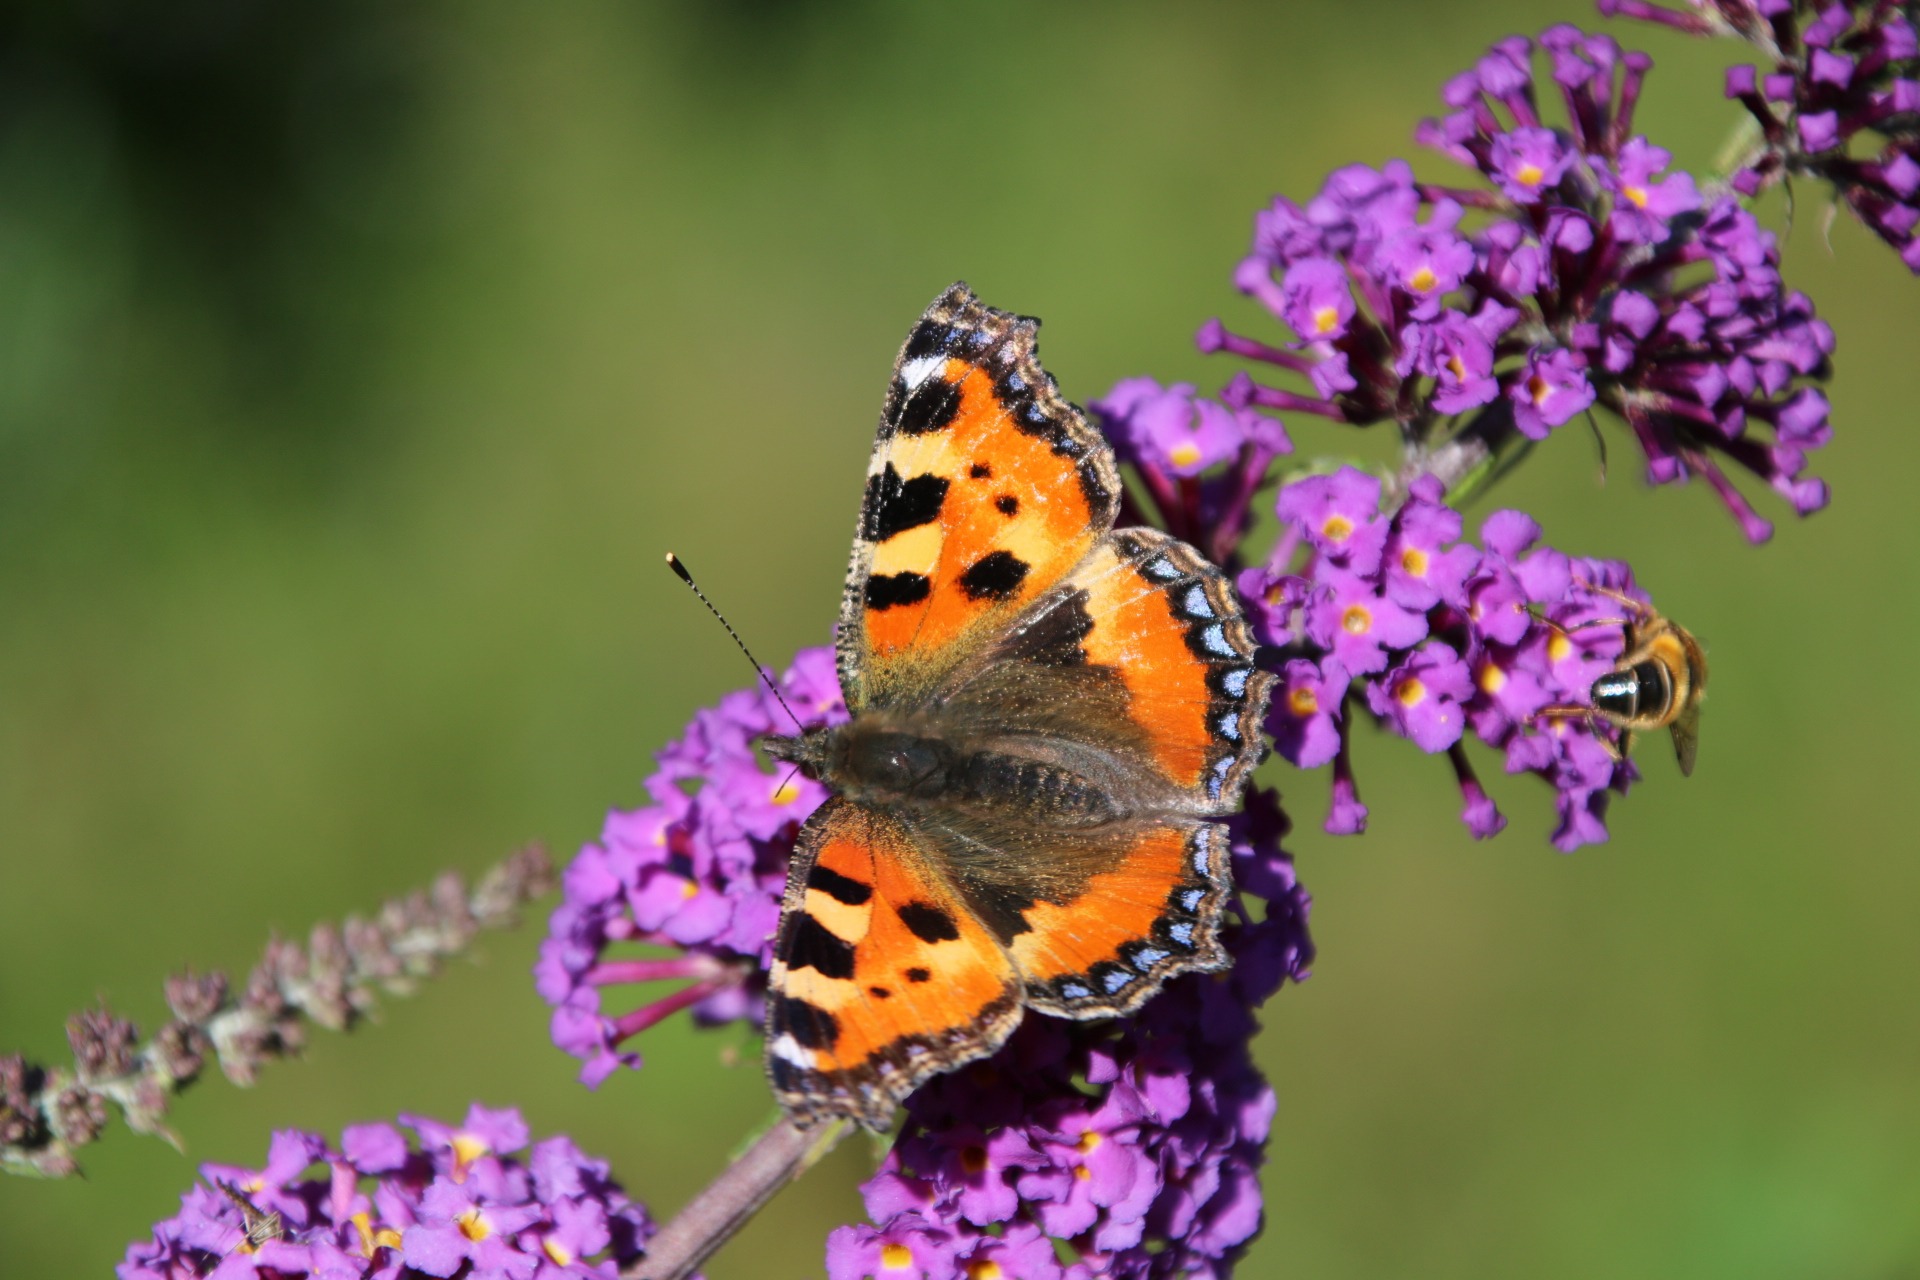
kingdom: Animalia
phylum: Arthropoda
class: Insecta
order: Lepidoptera
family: Nymphalidae
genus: Aglais
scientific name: Aglais urticae
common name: Nældens takvinge
